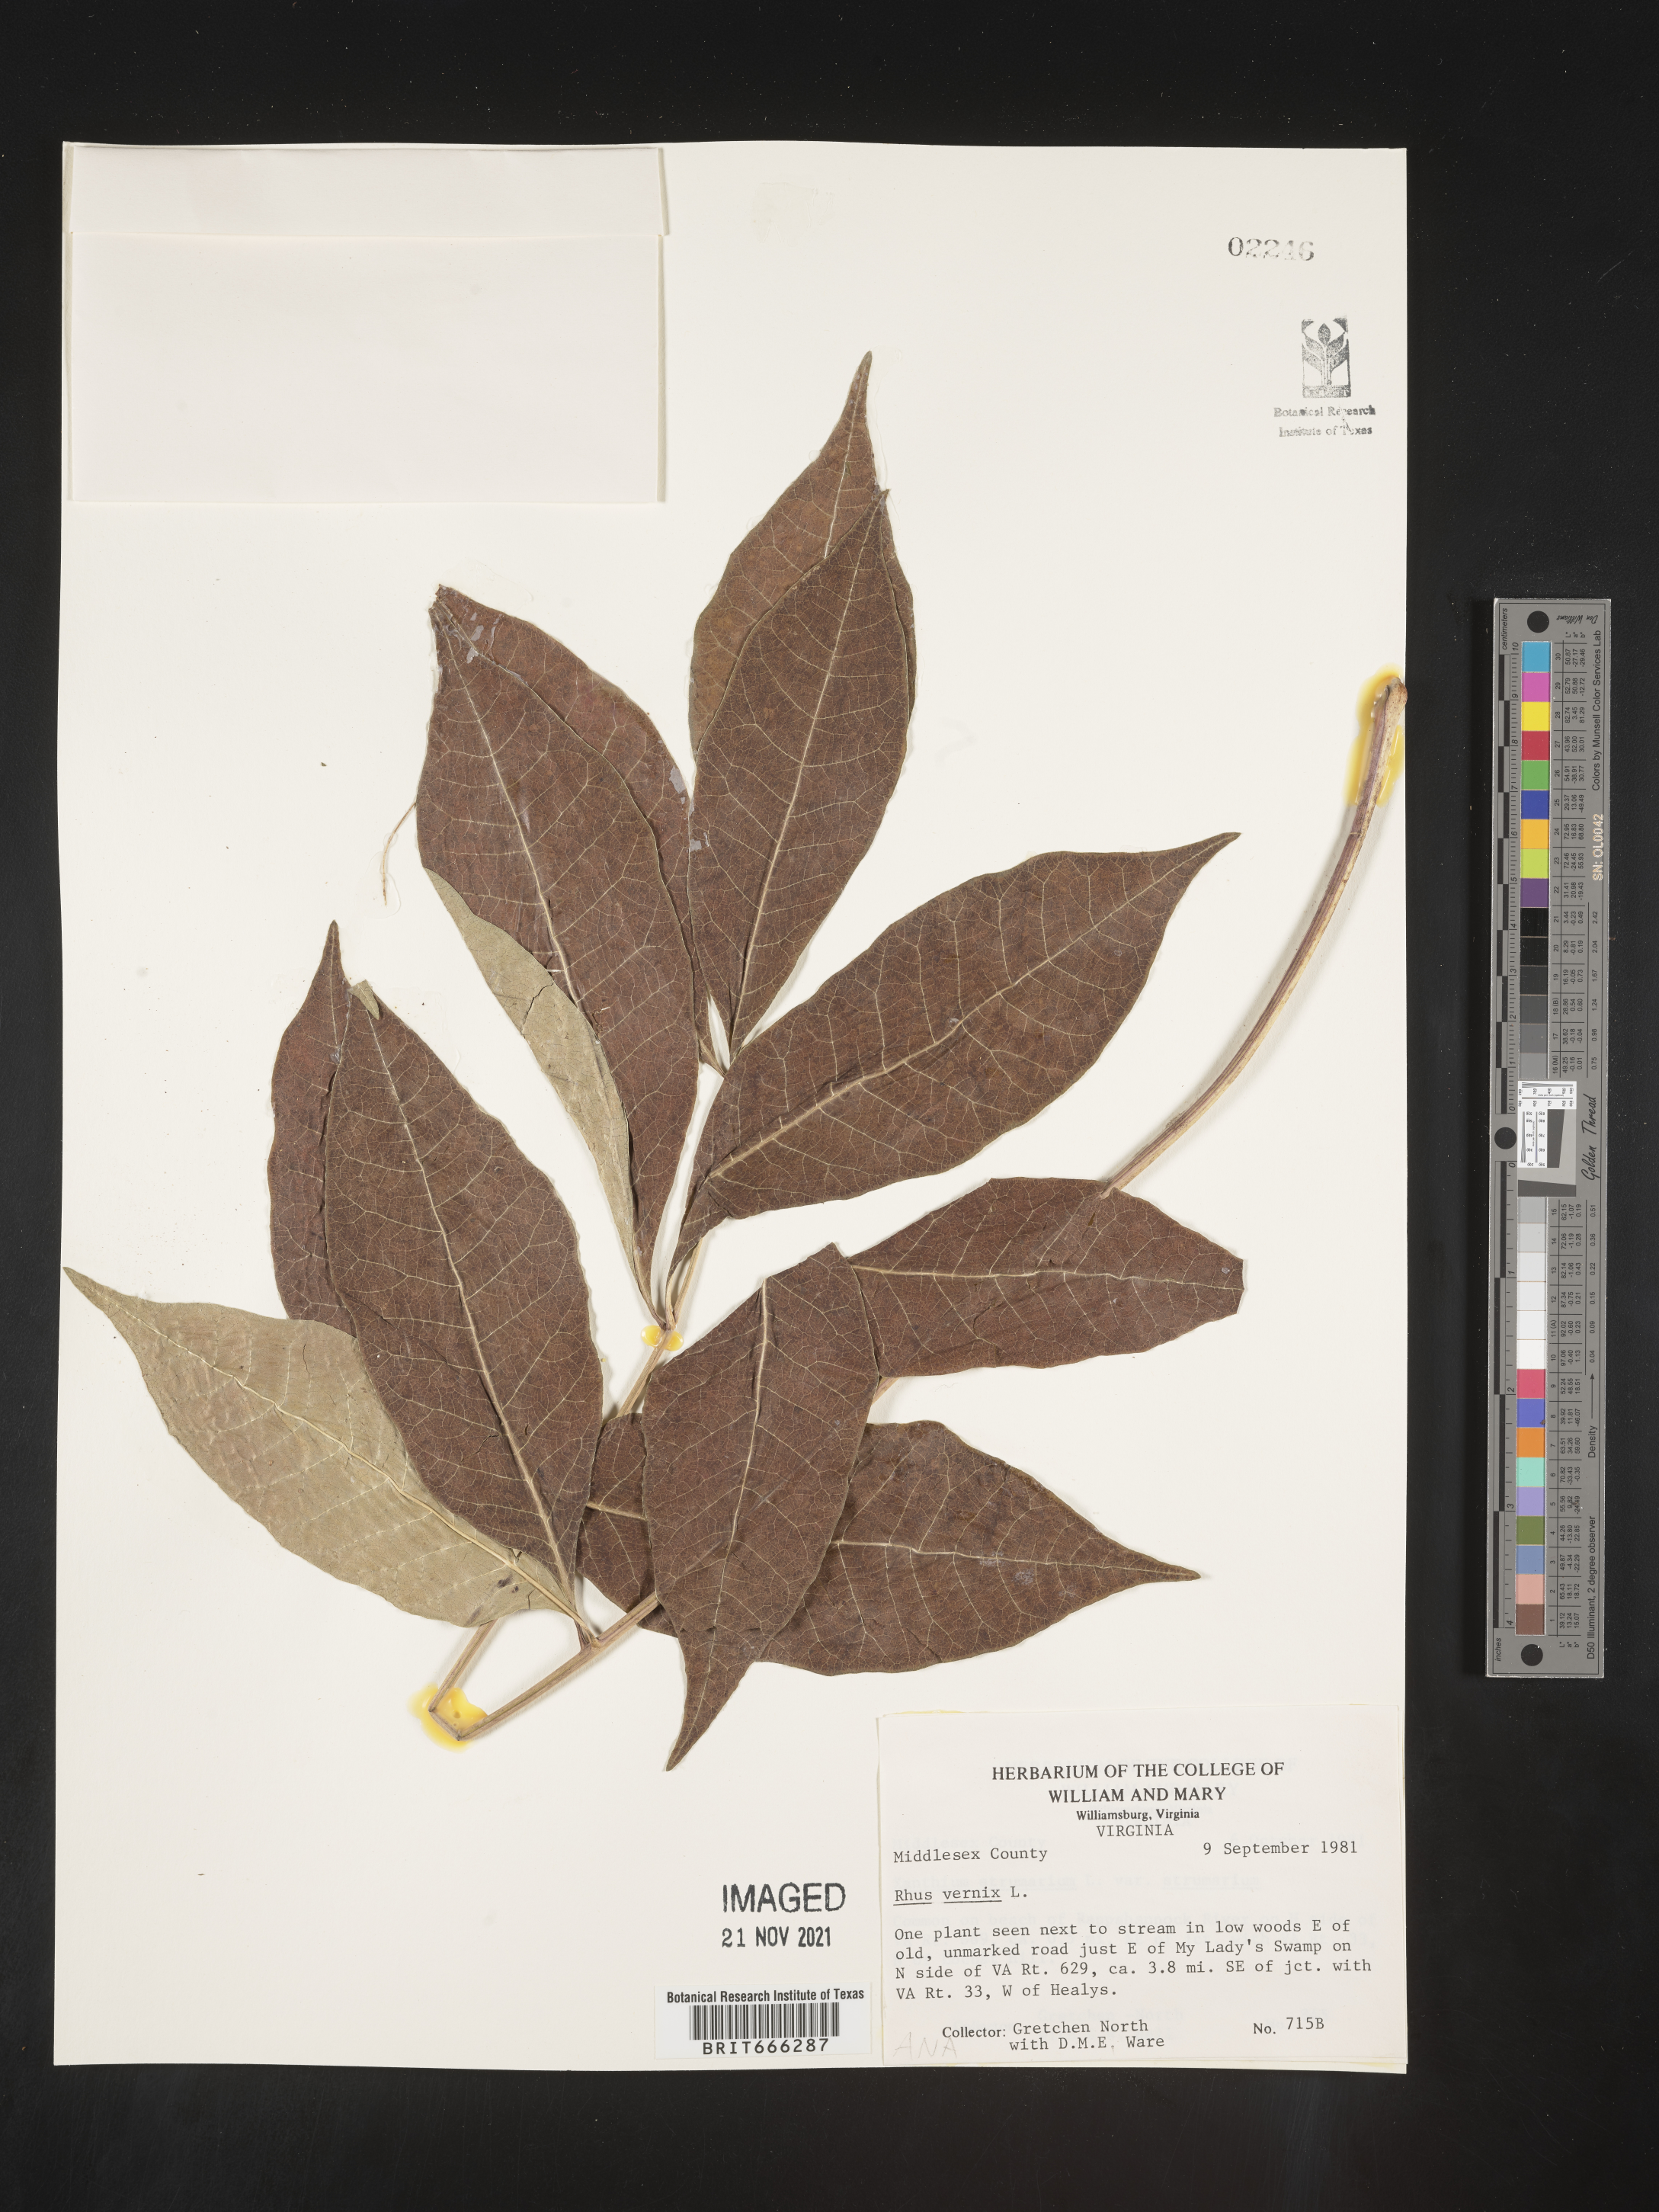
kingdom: Plantae
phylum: Tracheophyta
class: Magnoliopsida
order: Sapindales
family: Anacardiaceae
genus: Toxicodendron
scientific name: Toxicodendron vernix
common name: Poison sumac
